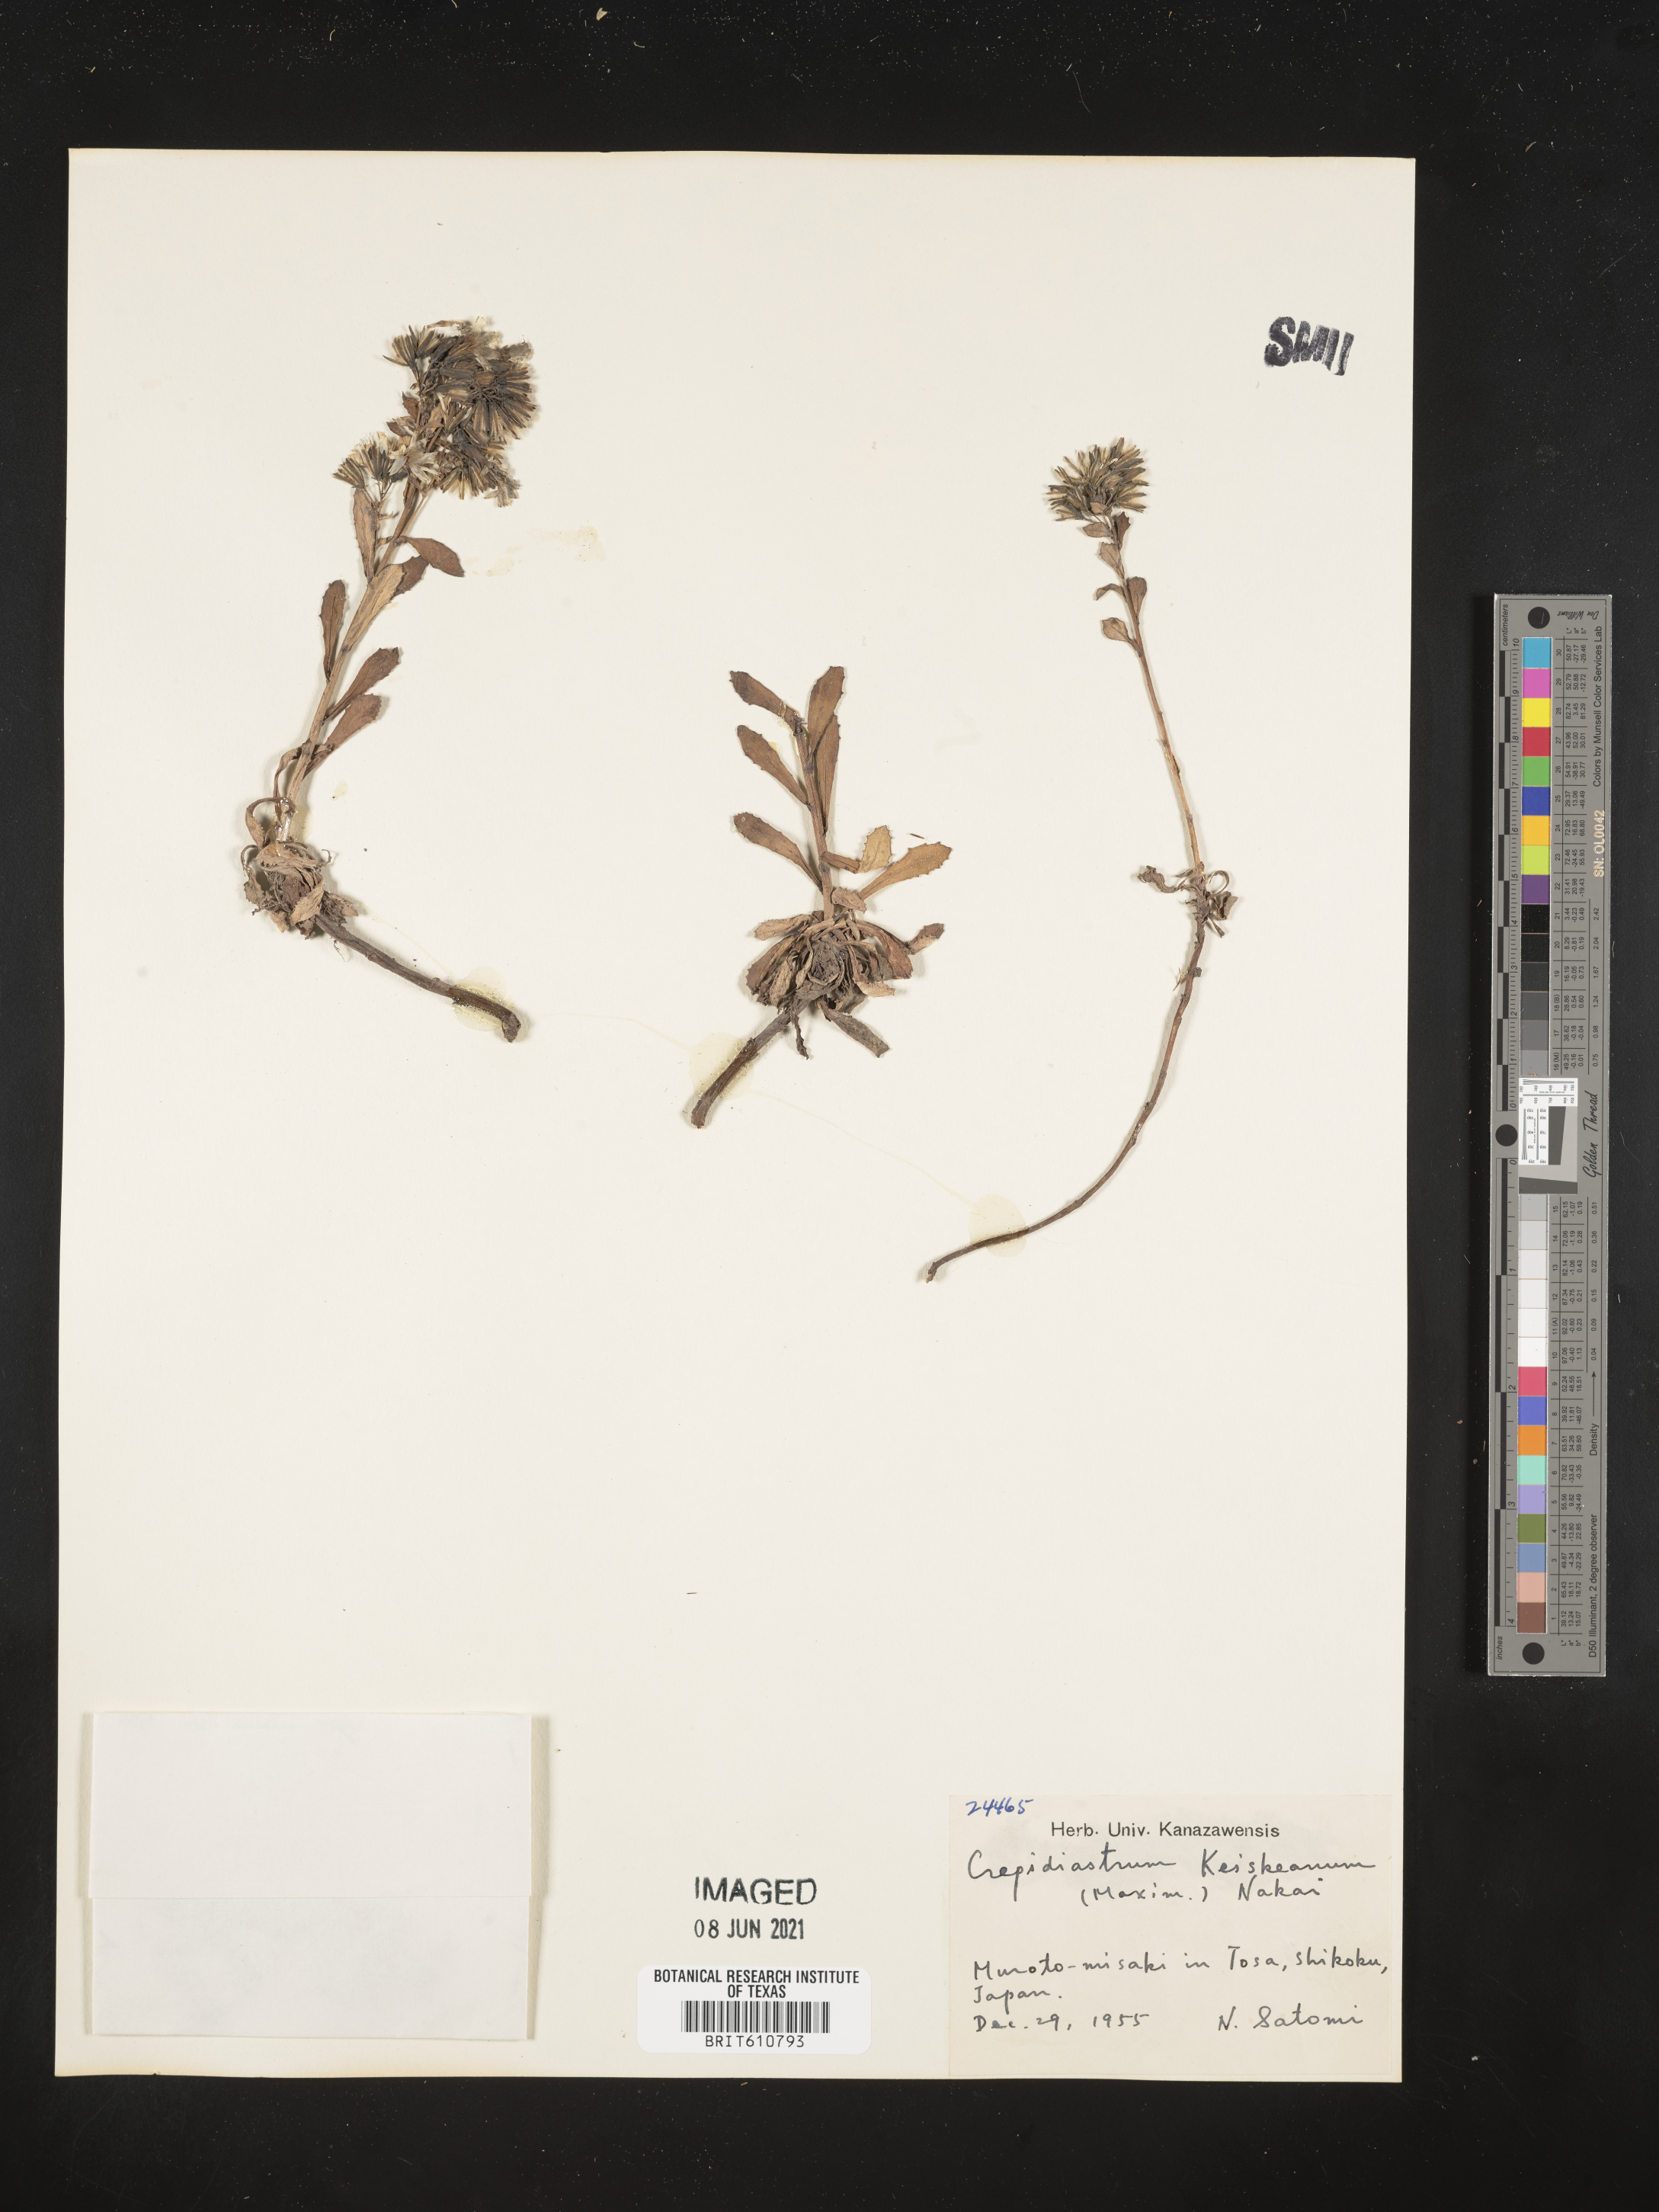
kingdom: Plantae
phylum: Tracheophyta
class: Magnoliopsida
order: Asterales
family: Asteraceae
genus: Crepidiastrum
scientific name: Crepidiastrum keiskeanum
